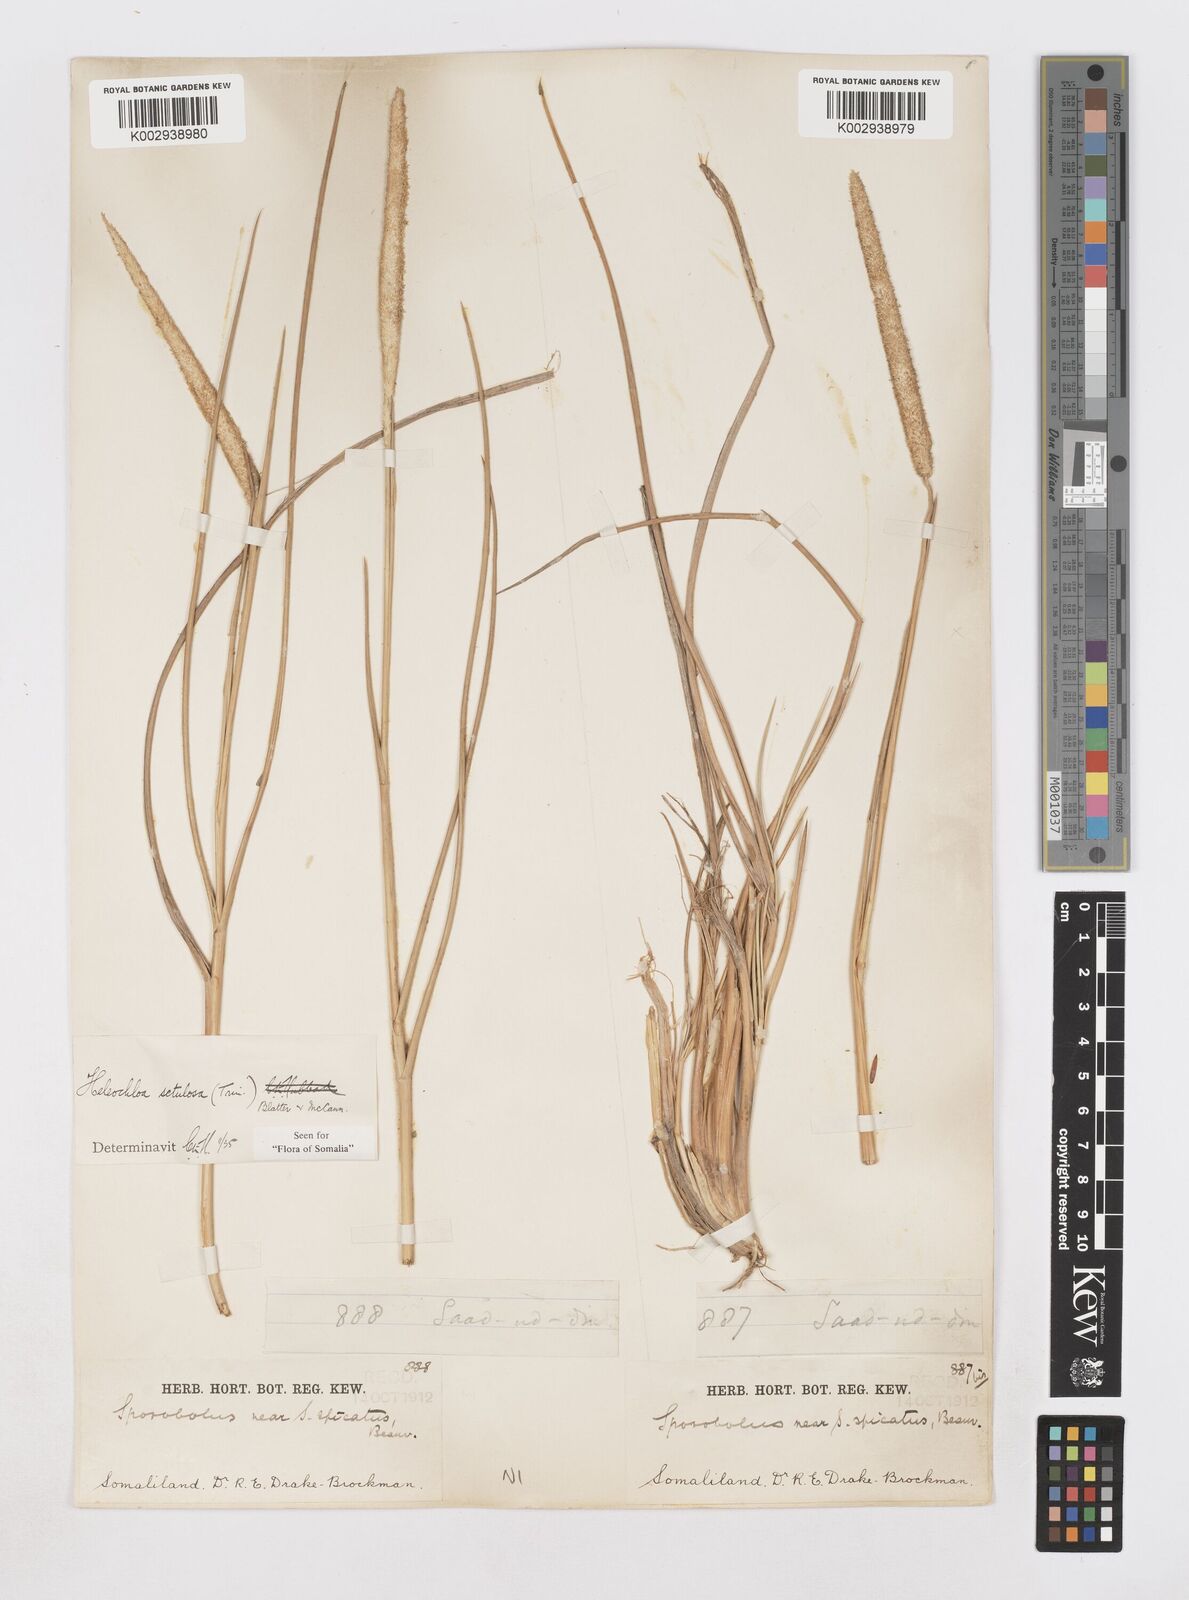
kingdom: Plantae
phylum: Tracheophyta
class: Liliopsida
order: Poales
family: Poaceae
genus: Urochondra
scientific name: Urochondra setulosa
